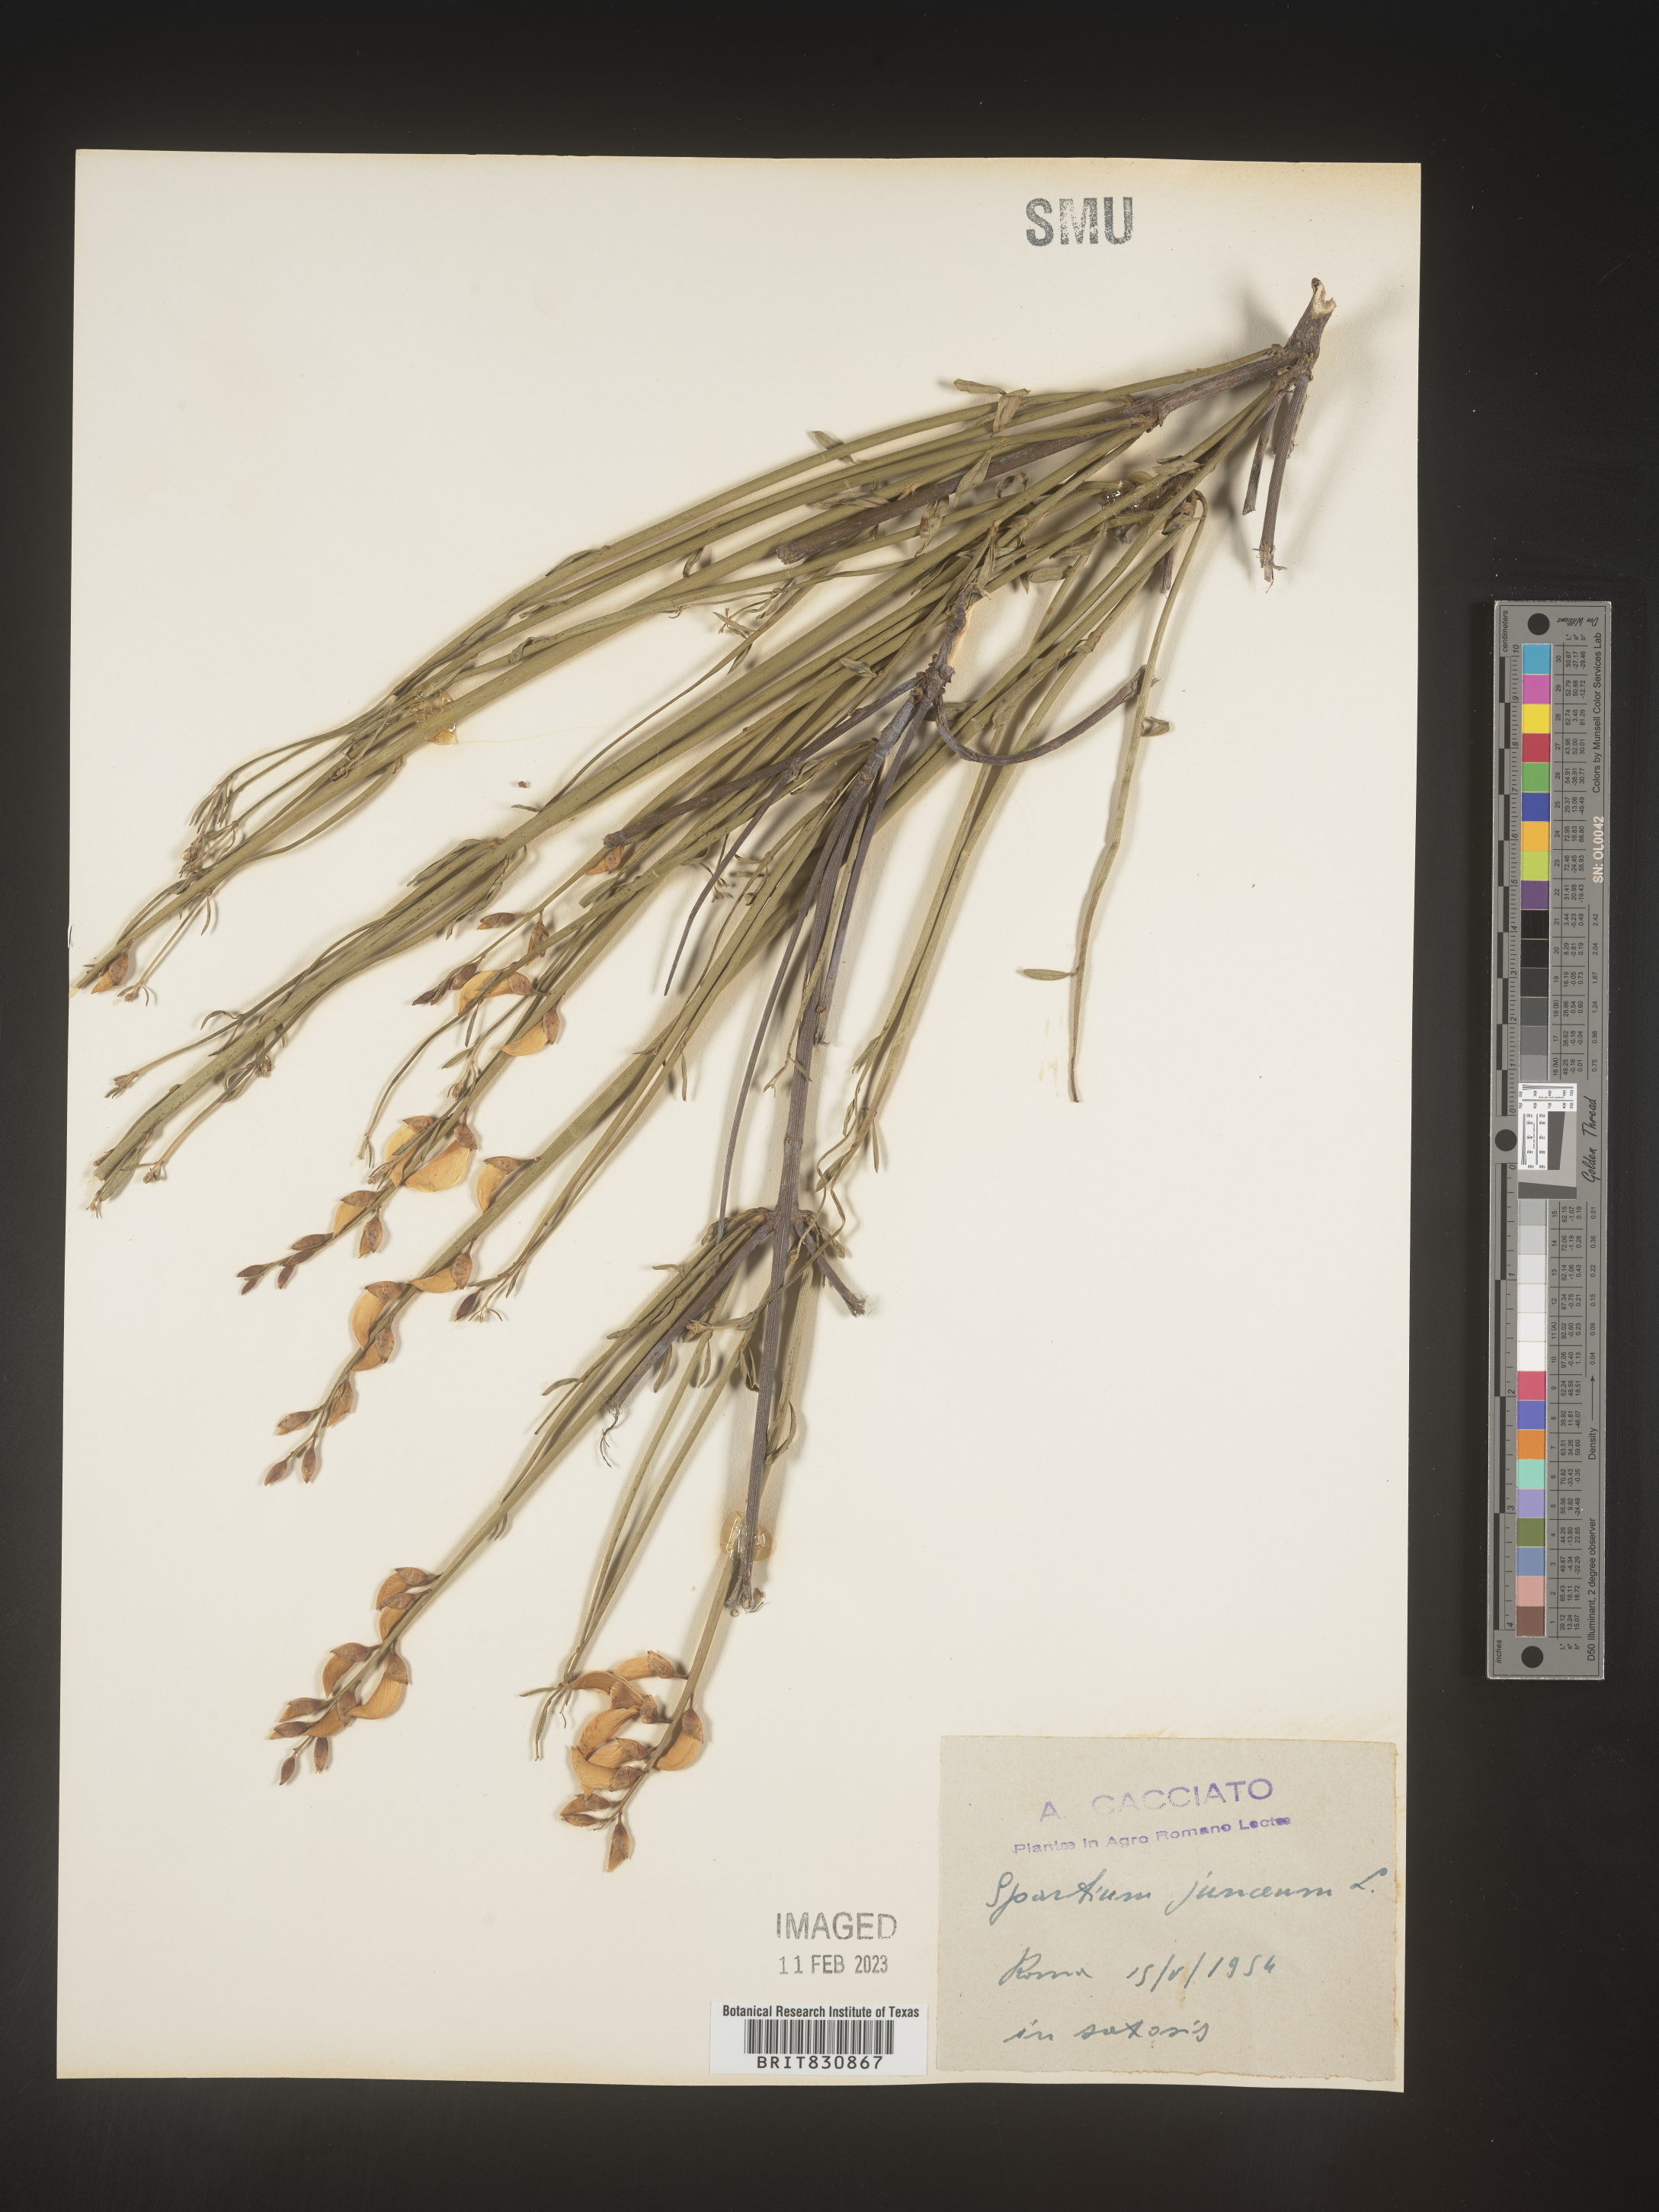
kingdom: Plantae
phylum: Tracheophyta
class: Magnoliopsida
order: Fabales
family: Fabaceae
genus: Spartium
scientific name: Spartium
